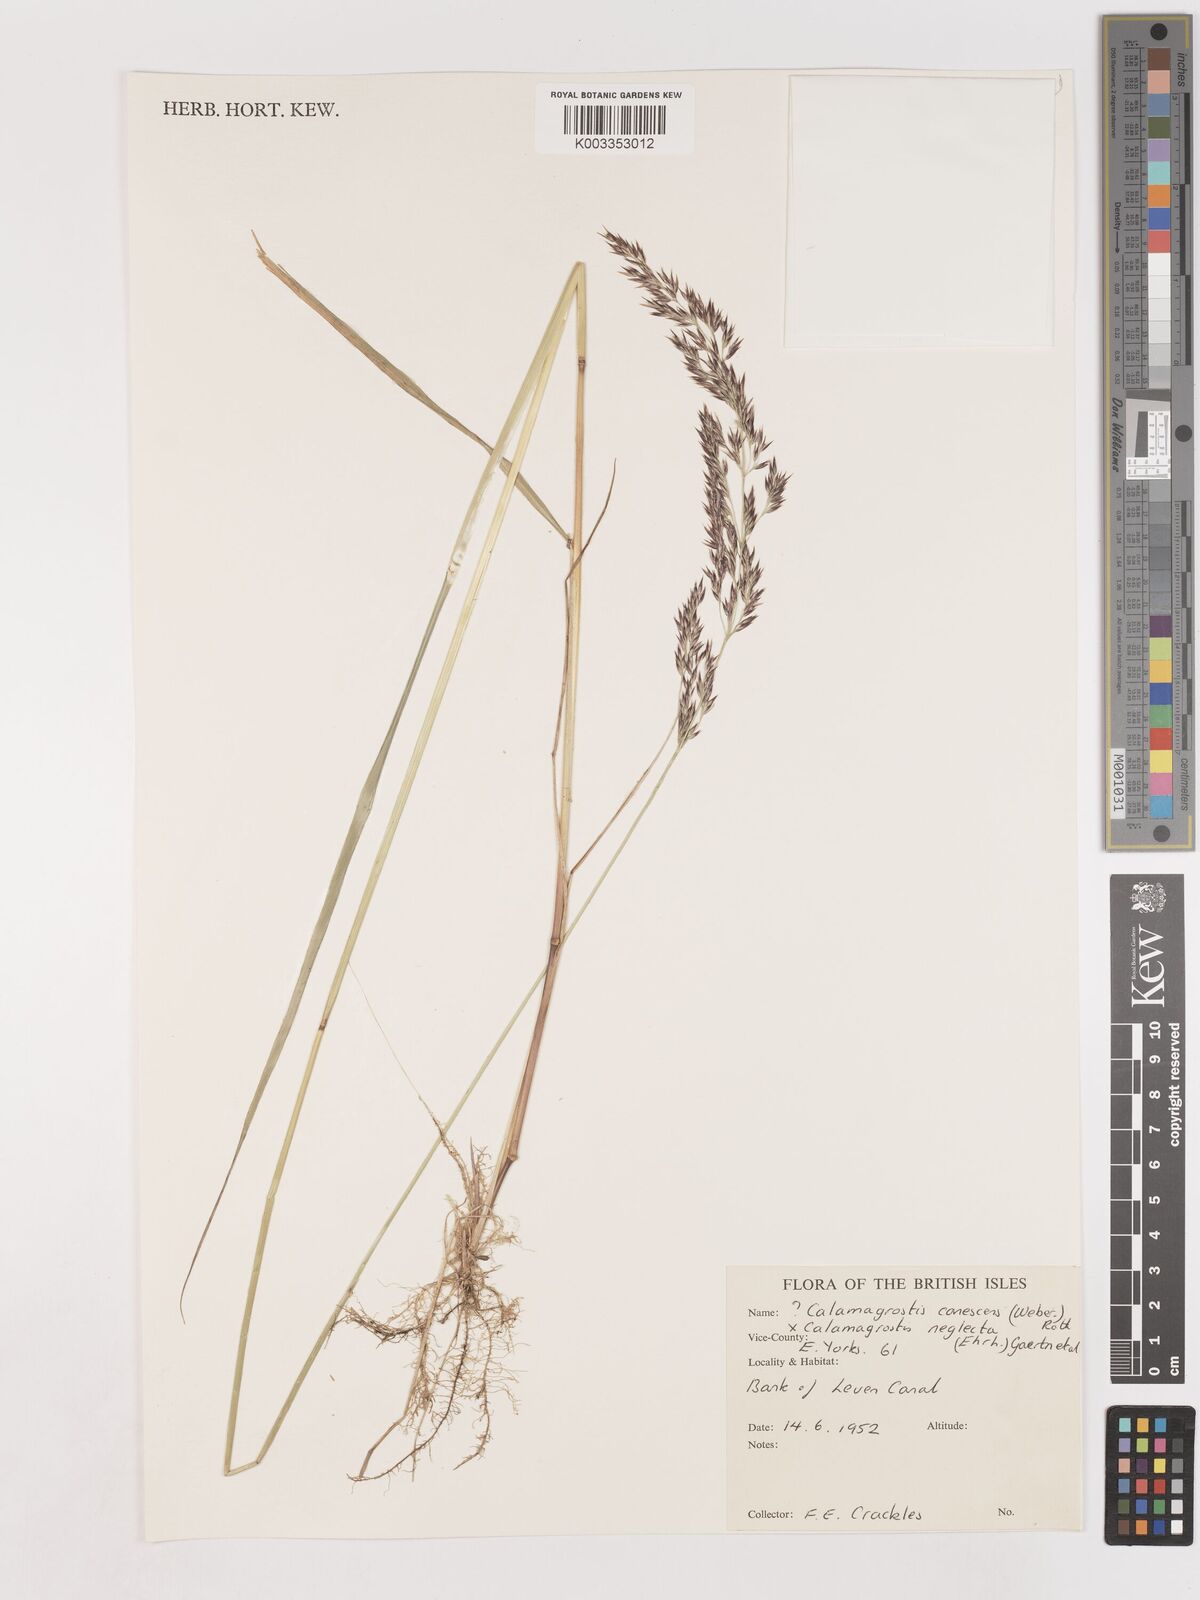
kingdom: Plantae
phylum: Tracheophyta
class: Liliopsida
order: Poales
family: Poaceae
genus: Calamagrostis
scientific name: Calamagrostis canescens
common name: Purple small-reed
